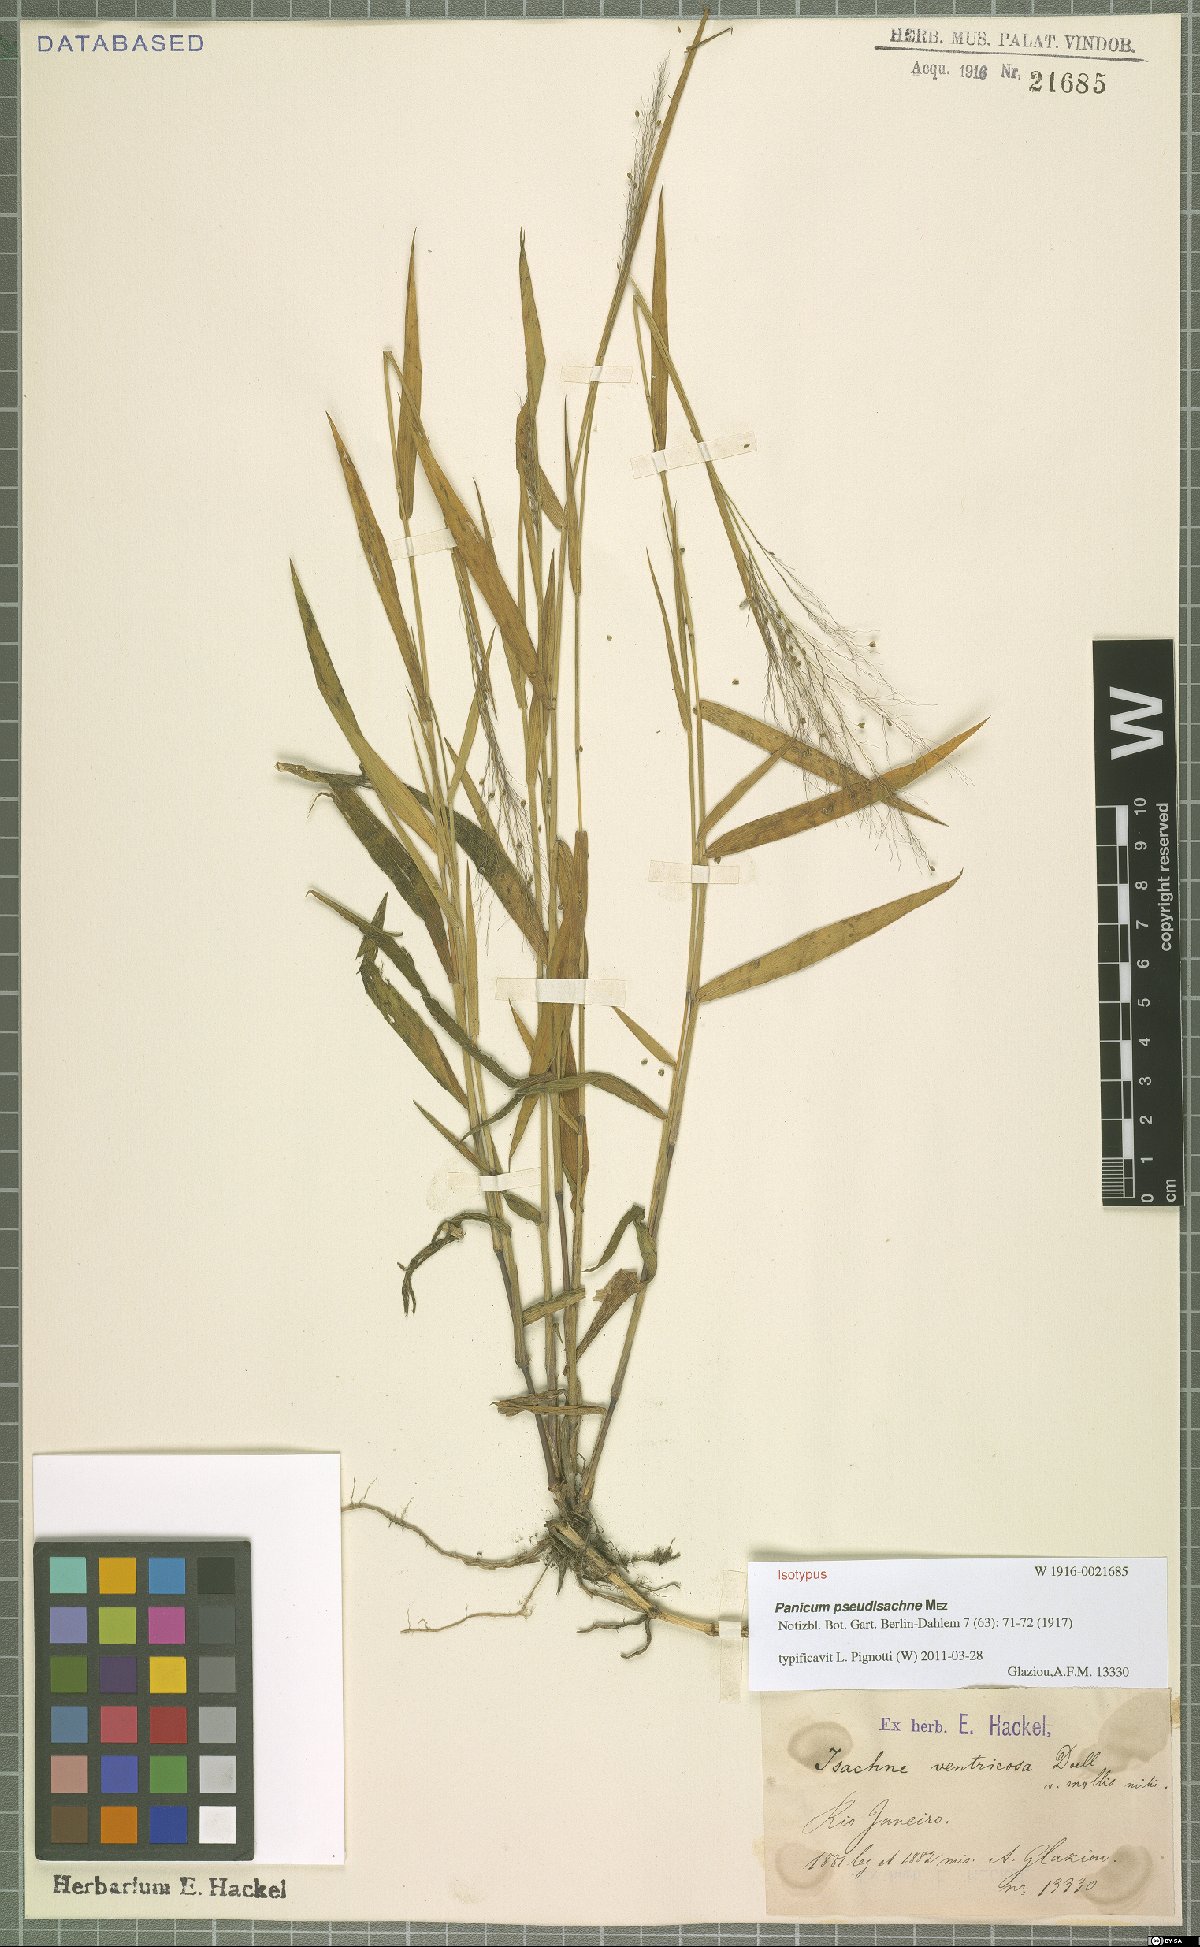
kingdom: Plantae
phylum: Tracheophyta
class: Liliopsida
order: Poales
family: Poaceae
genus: Trichanthecium
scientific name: Trichanthecium pseudisachne
